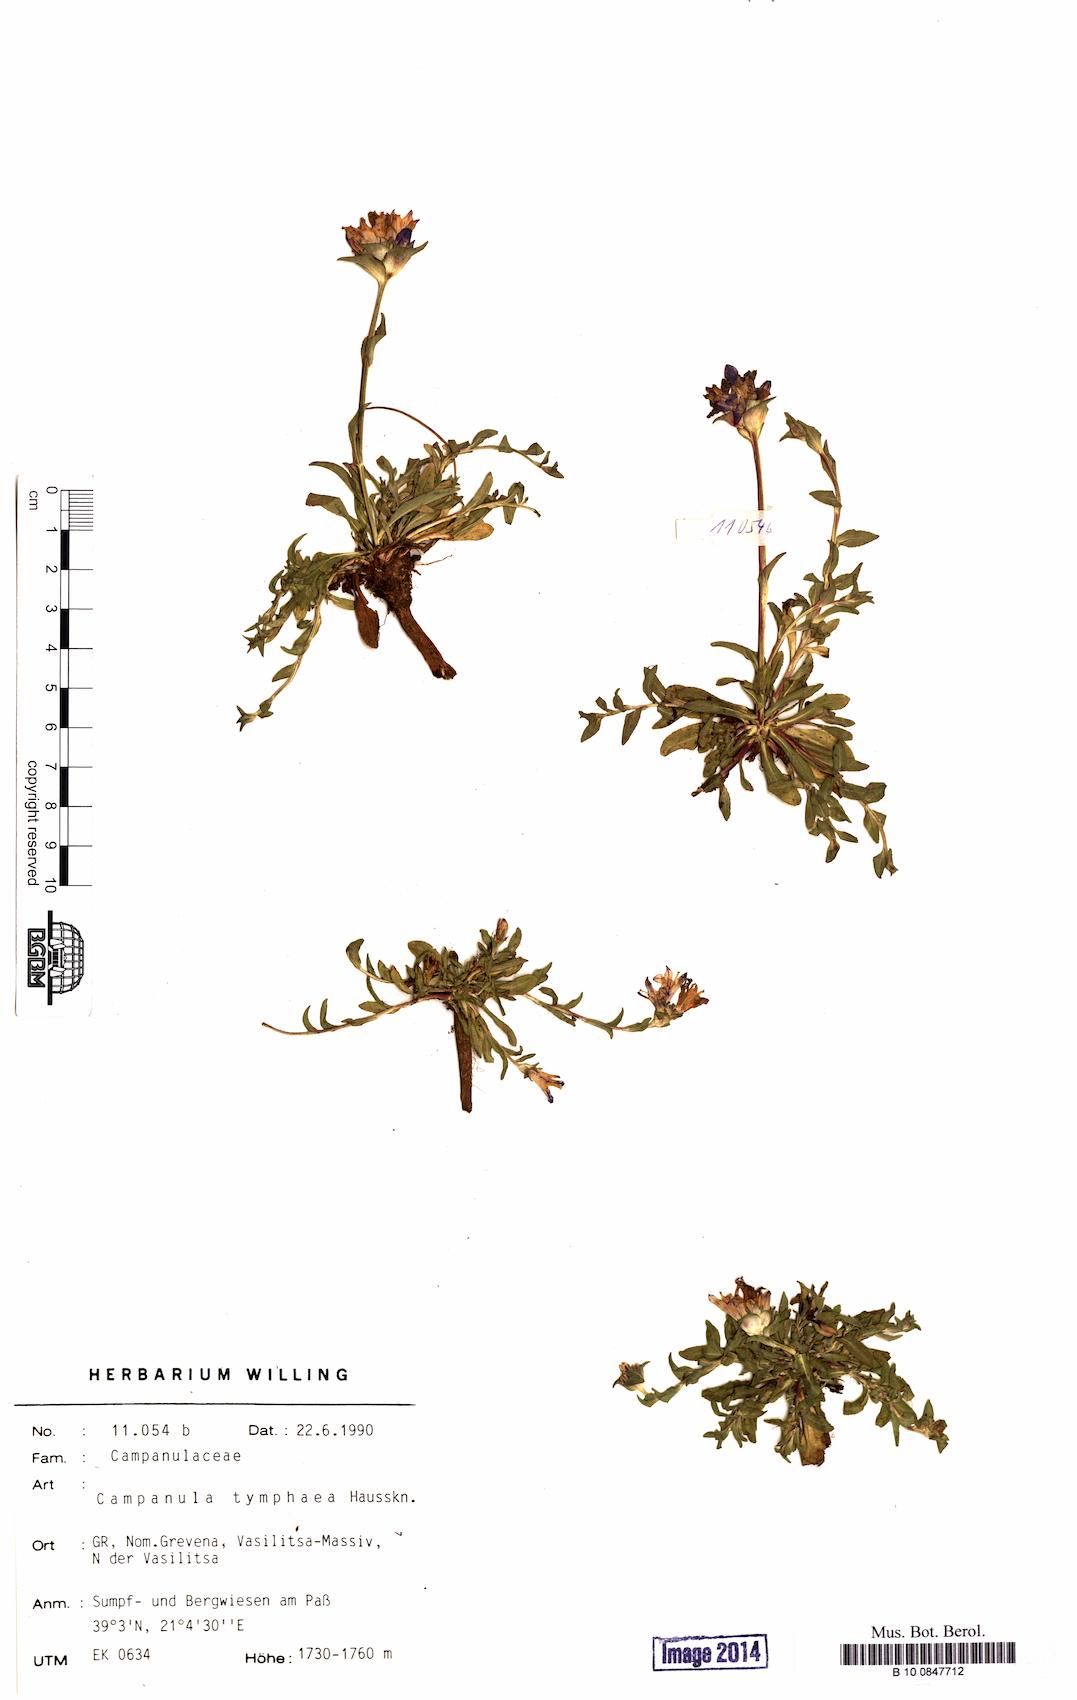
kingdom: Plantae
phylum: Tracheophyta
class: Magnoliopsida
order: Asterales
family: Campanulaceae
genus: Campanula
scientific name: Campanula tymphaea
